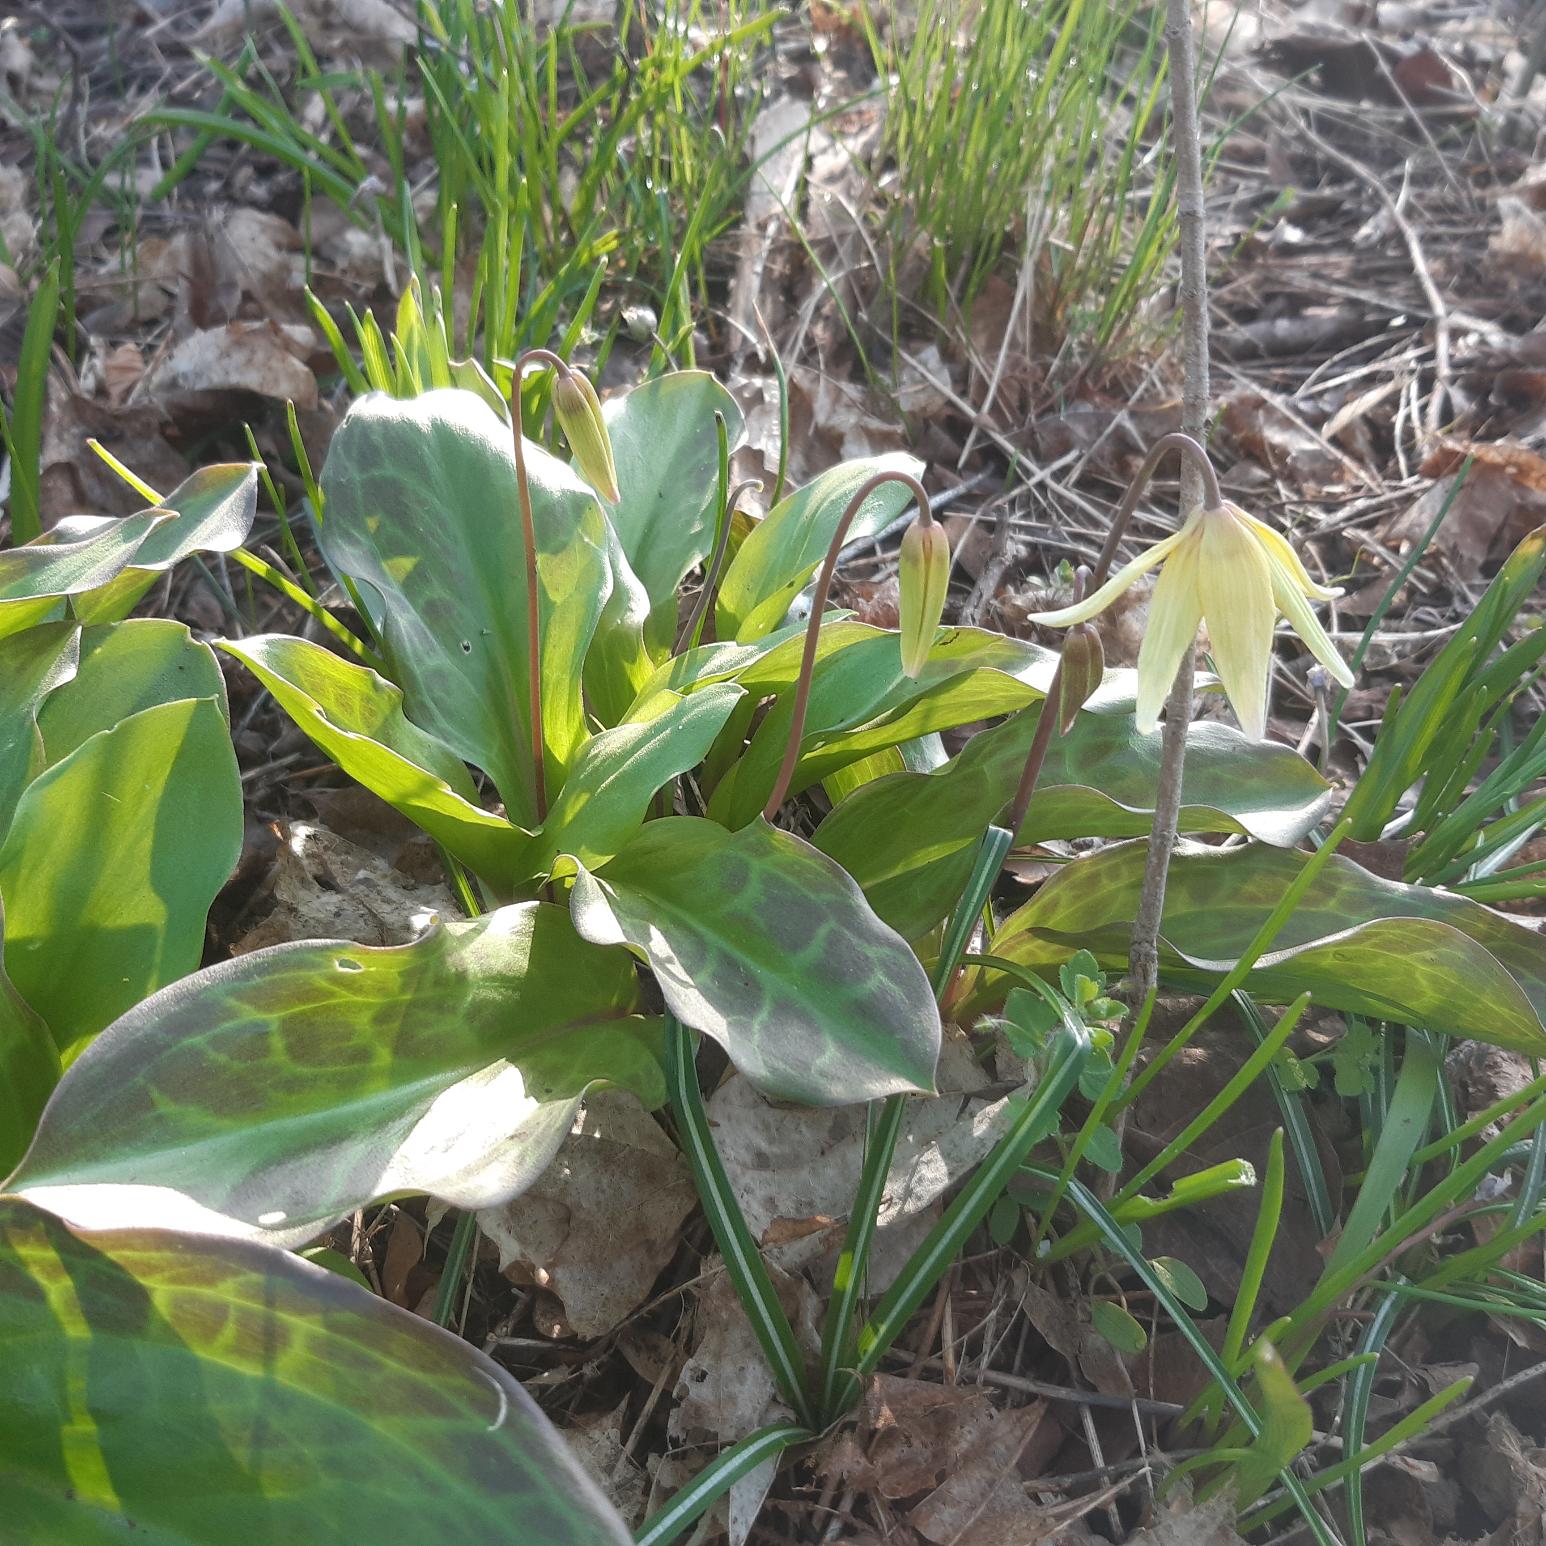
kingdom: Plantae
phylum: Tracheophyta
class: Liliopsida
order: Liliales
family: Liliaceae
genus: Erythronium
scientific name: Erythronium
